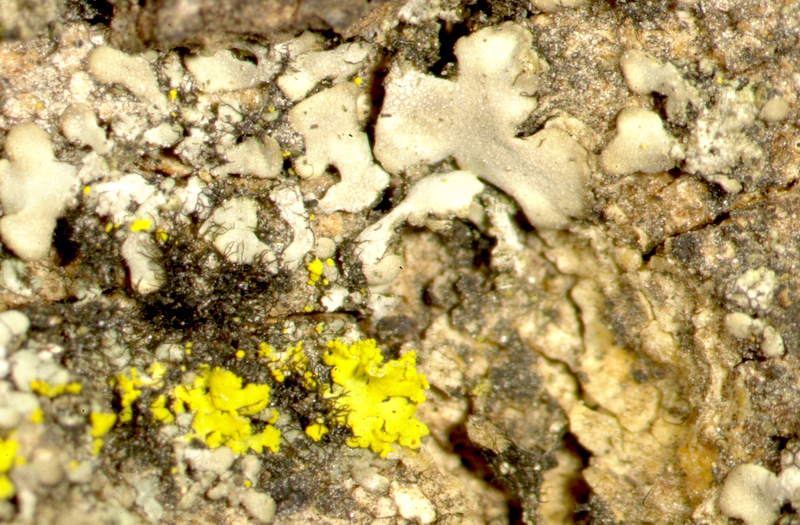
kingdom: Fungi
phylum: Ascomycota
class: Lecanoromycetes
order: Caliciales
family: Physciaceae
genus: Phaeophyscia
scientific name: Phaeophyscia hispidula
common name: Whiskered shadow lichen
